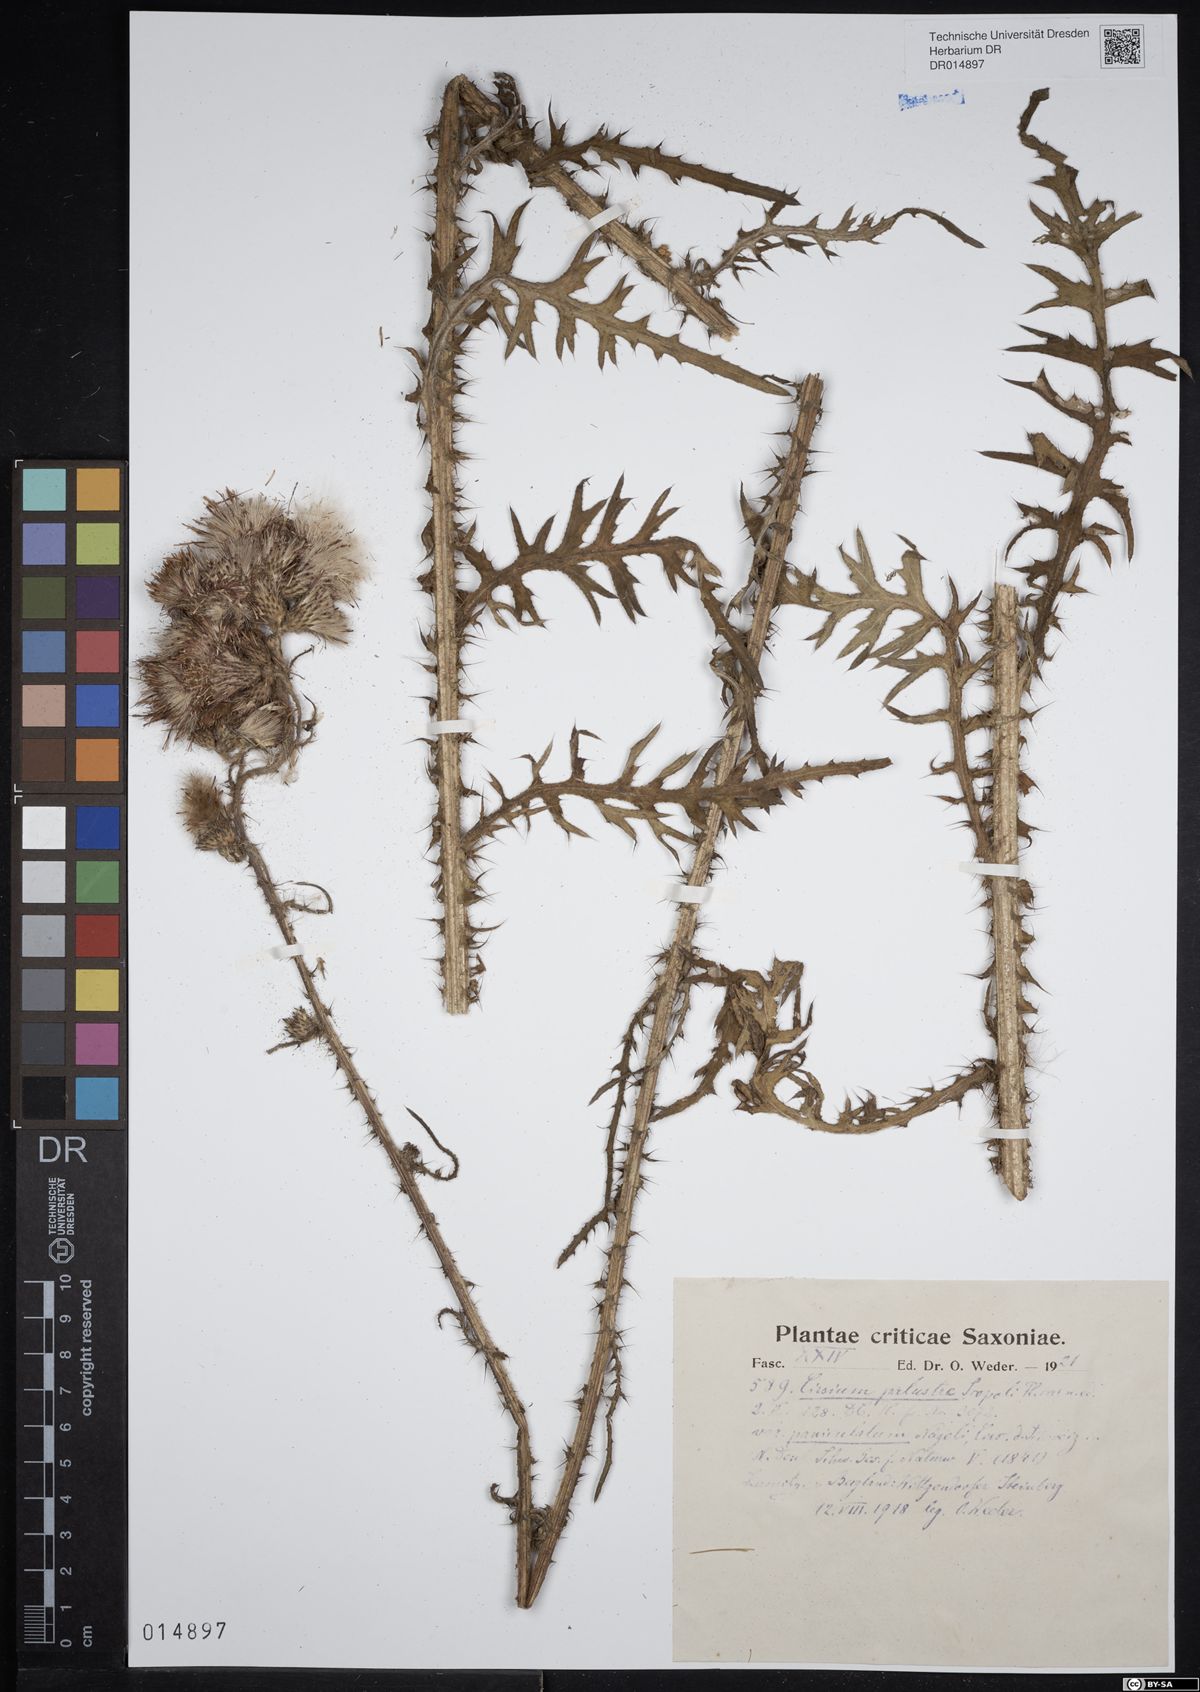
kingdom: Plantae
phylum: Tracheophyta
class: Magnoliopsida
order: Asterales
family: Asteraceae
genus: Cirsium
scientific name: Cirsium palustre
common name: Marsh thistle
